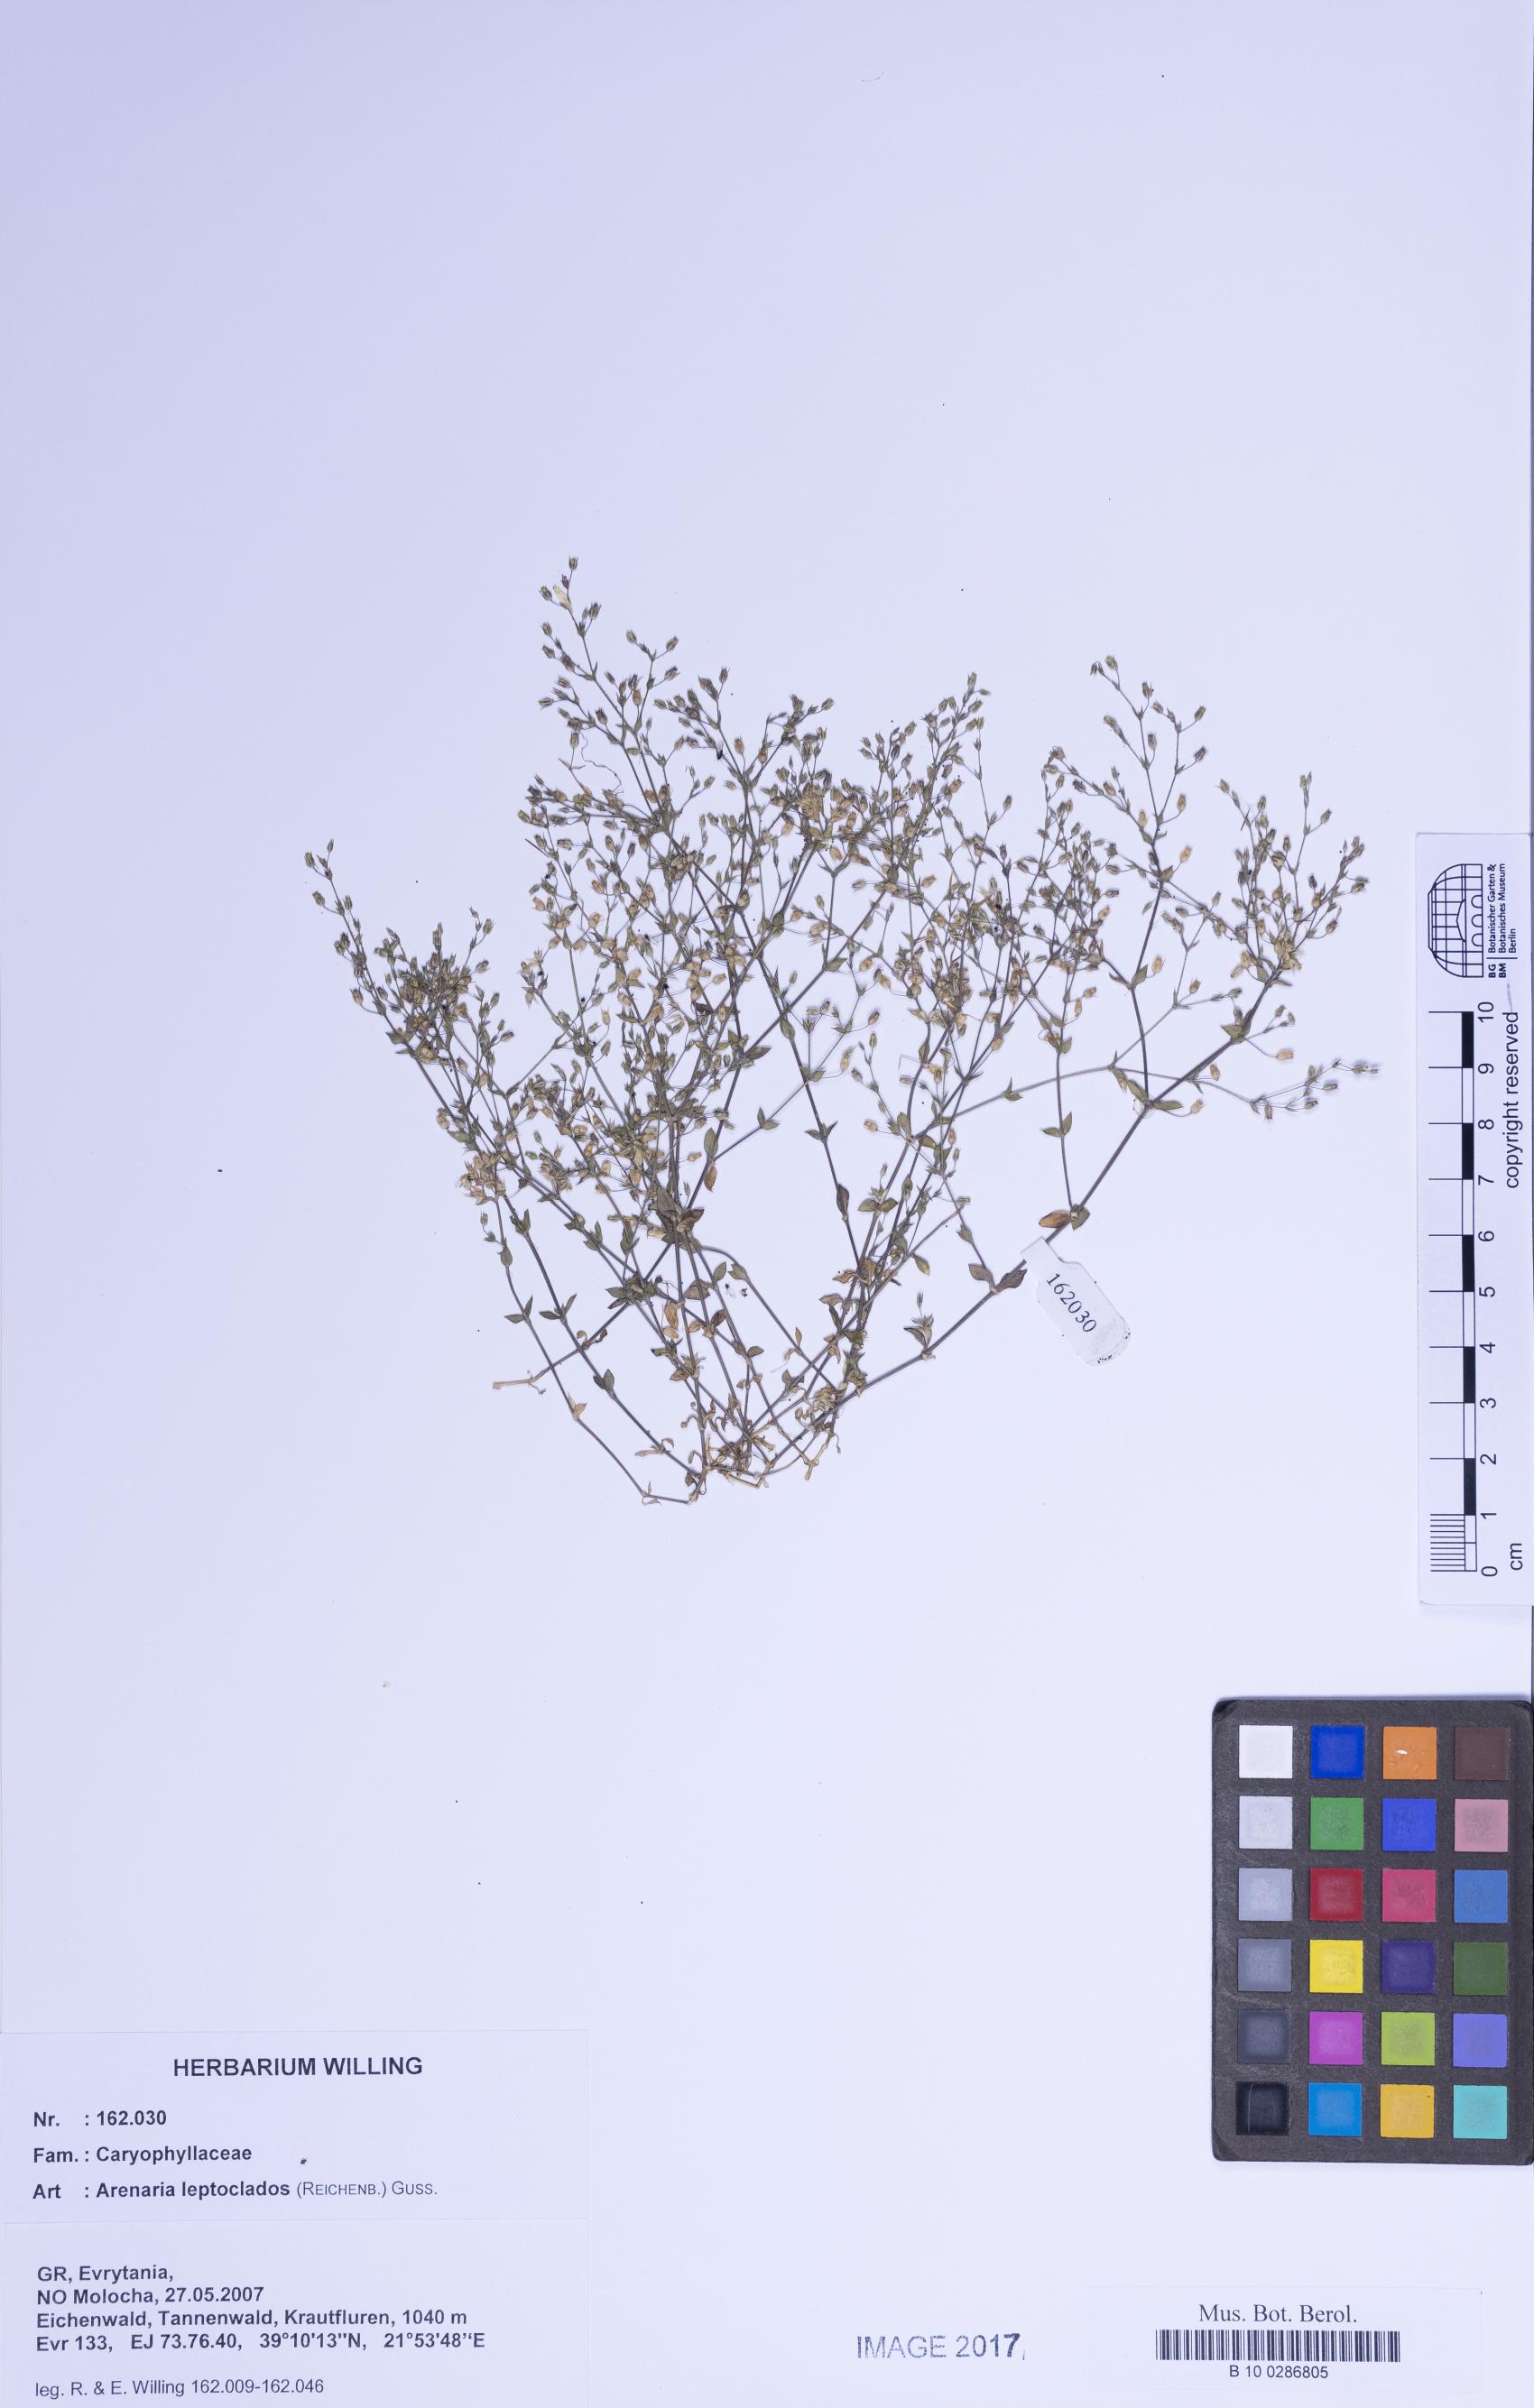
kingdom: Plantae
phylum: Tracheophyta
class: Magnoliopsida
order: Caryophyllales
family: Caryophyllaceae
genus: Arenaria
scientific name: Arenaria leptoclados
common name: Thyme-leaved sandwort
